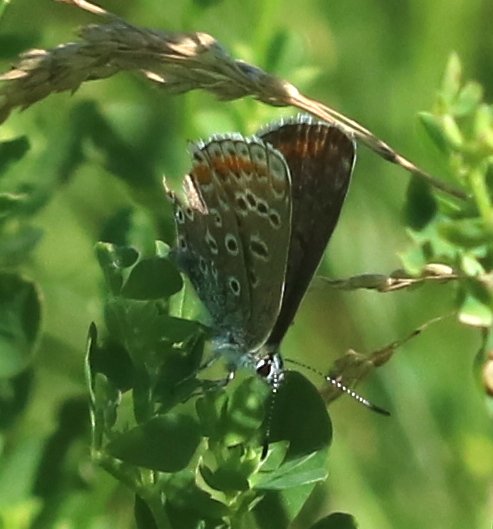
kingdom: Animalia
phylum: Arthropoda
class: Insecta
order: Lepidoptera
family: Lycaenidae
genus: Polyommatus
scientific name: Polyommatus icarus
